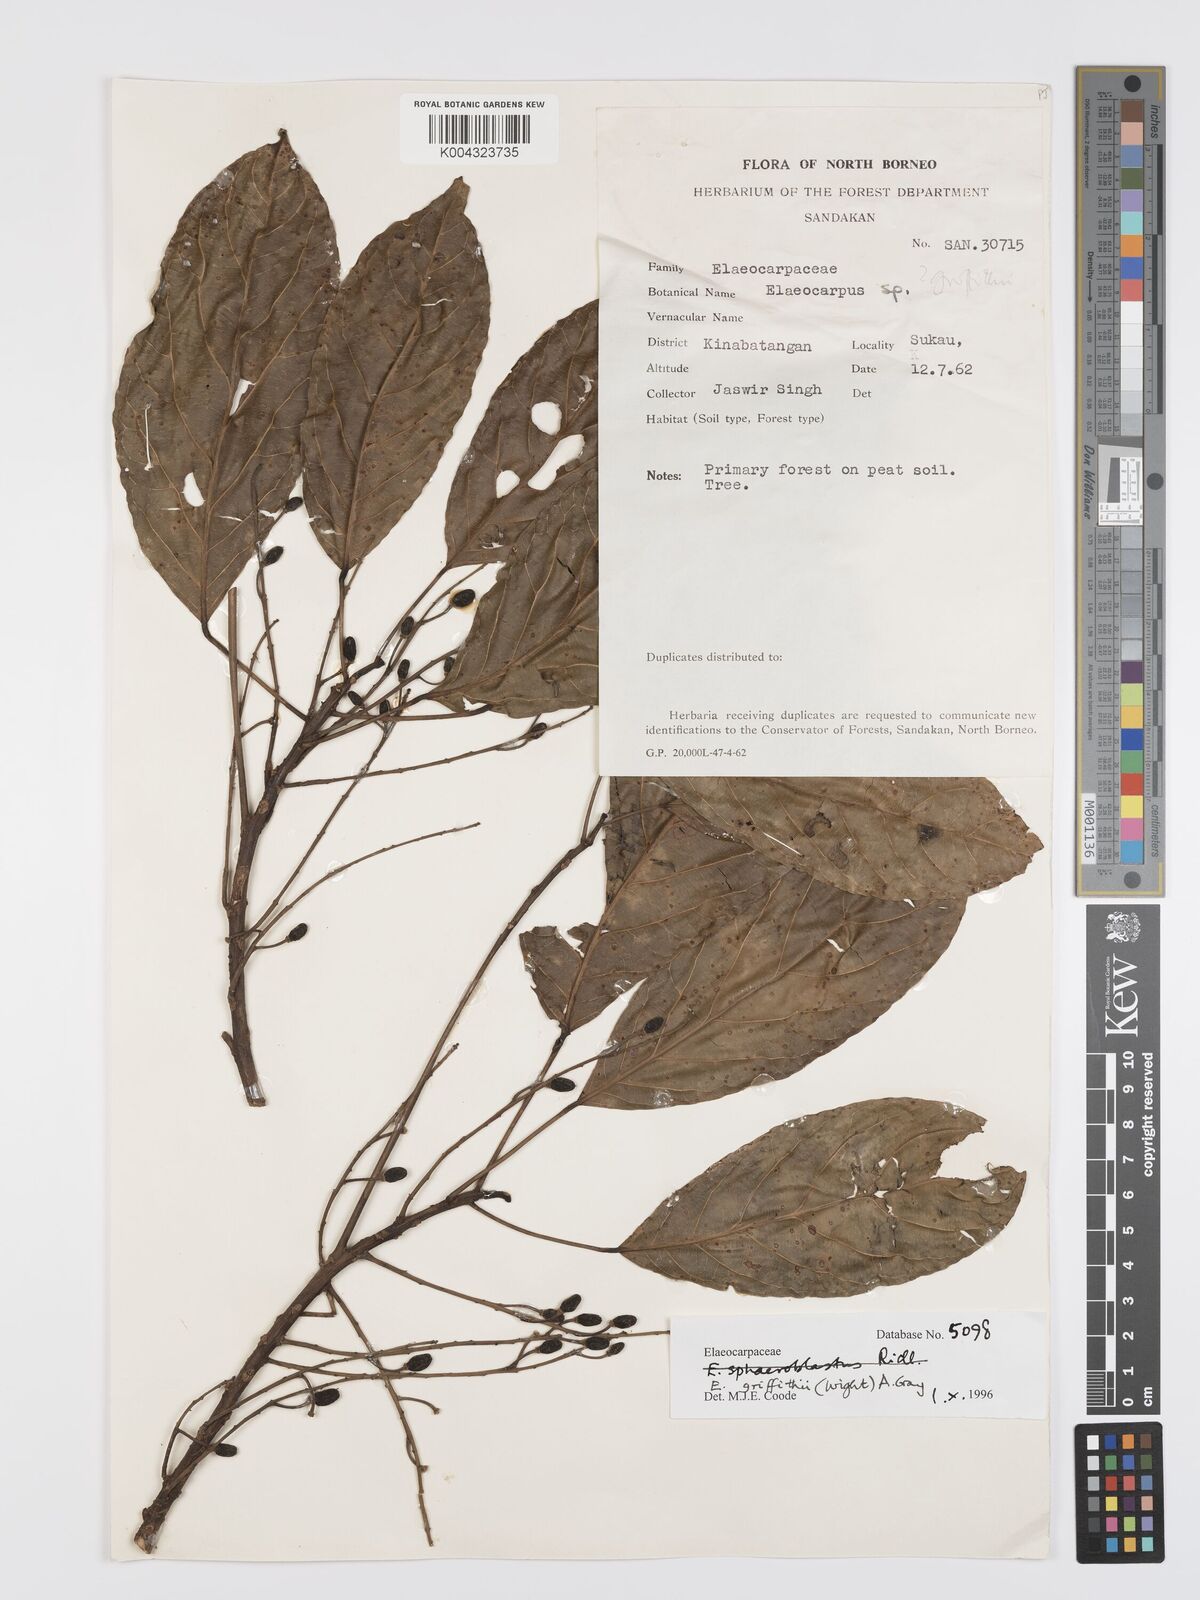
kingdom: Plantae
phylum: Tracheophyta
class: Magnoliopsida
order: Oxalidales
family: Elaeocarpaceae
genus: Elaeocarpus
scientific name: Elaeocarpus griffithii
